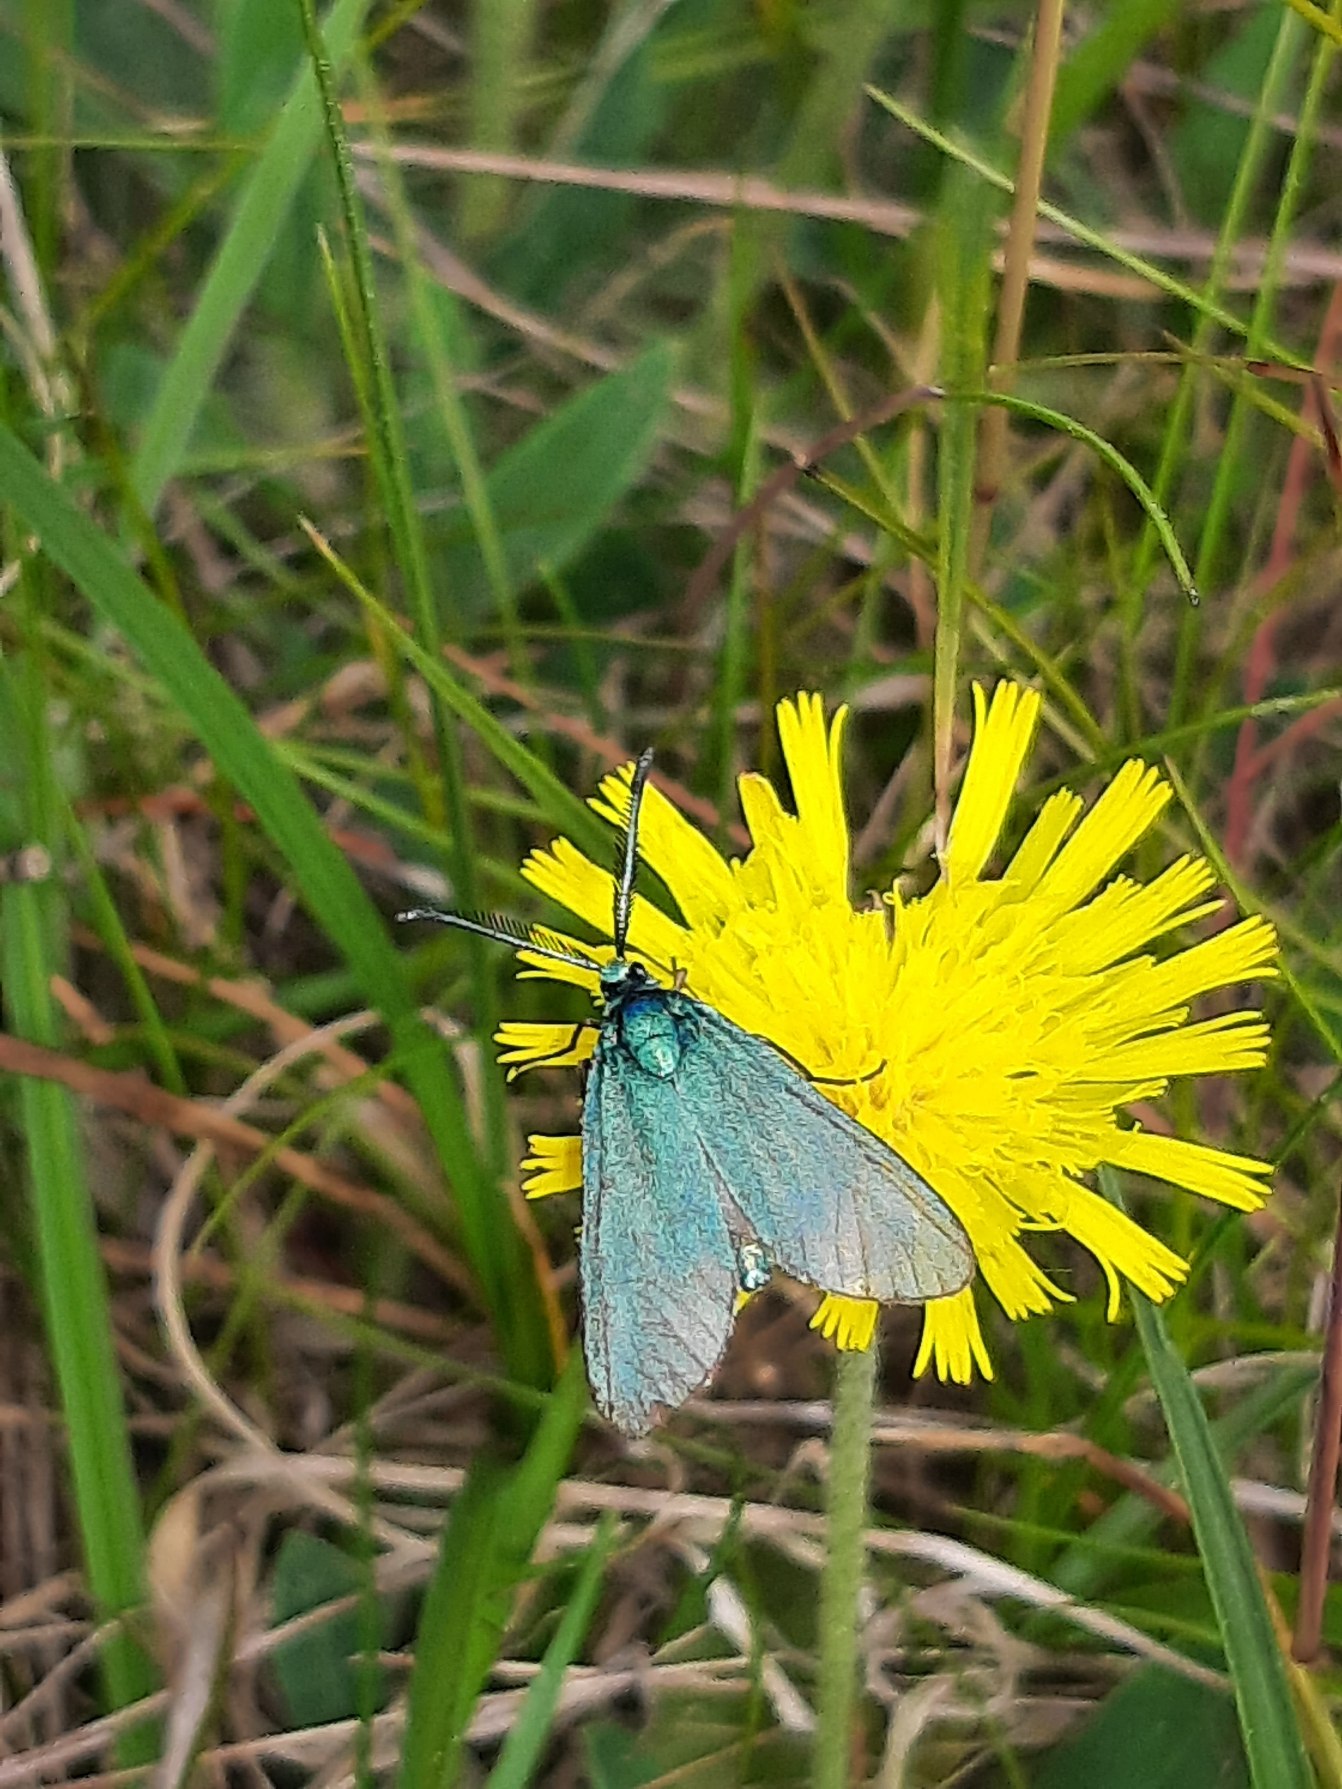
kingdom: Animalia
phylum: Arthropoda
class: Insecta
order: Lepidoptera
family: Zygaenidae
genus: Adscita
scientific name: Adscita statices
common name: Metalvinge
